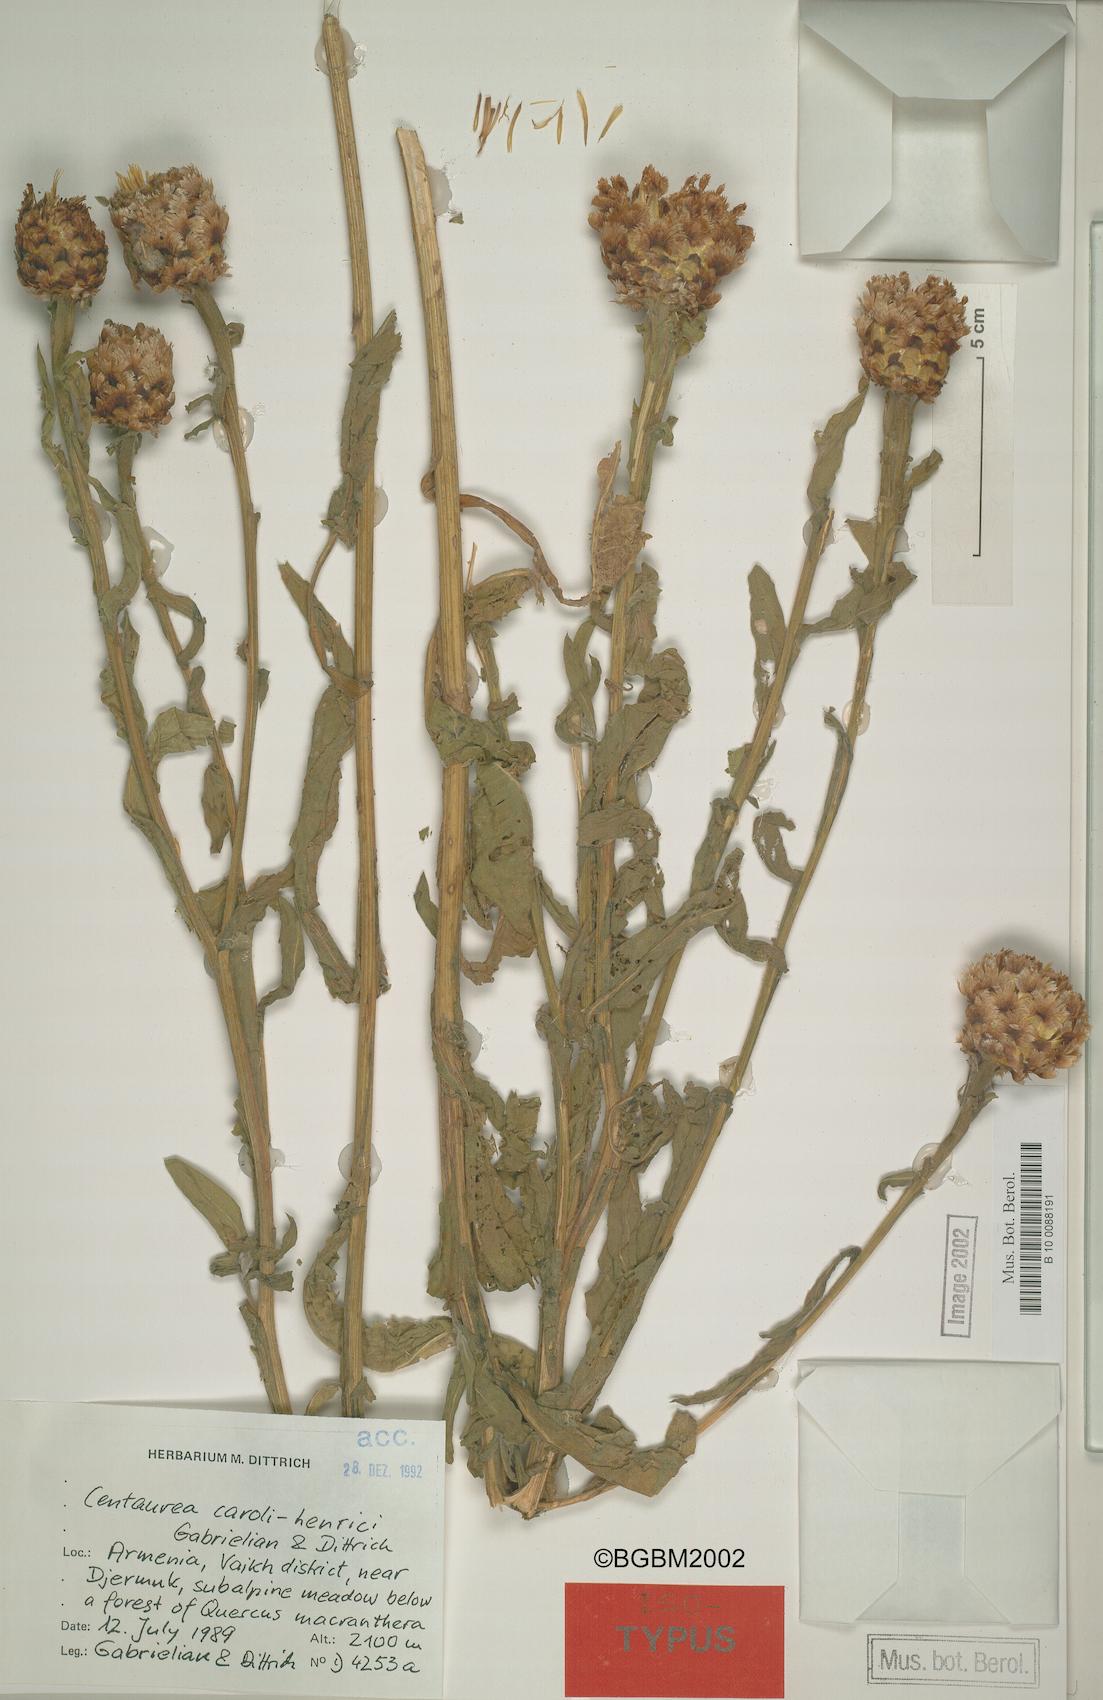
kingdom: Plantae
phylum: Tracheophyta
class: Magnoliopsida
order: Asterales
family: Asteraceae
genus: Centaurea
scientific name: Centaurea caroli-henrici
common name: Karl-henrikh's centaury
